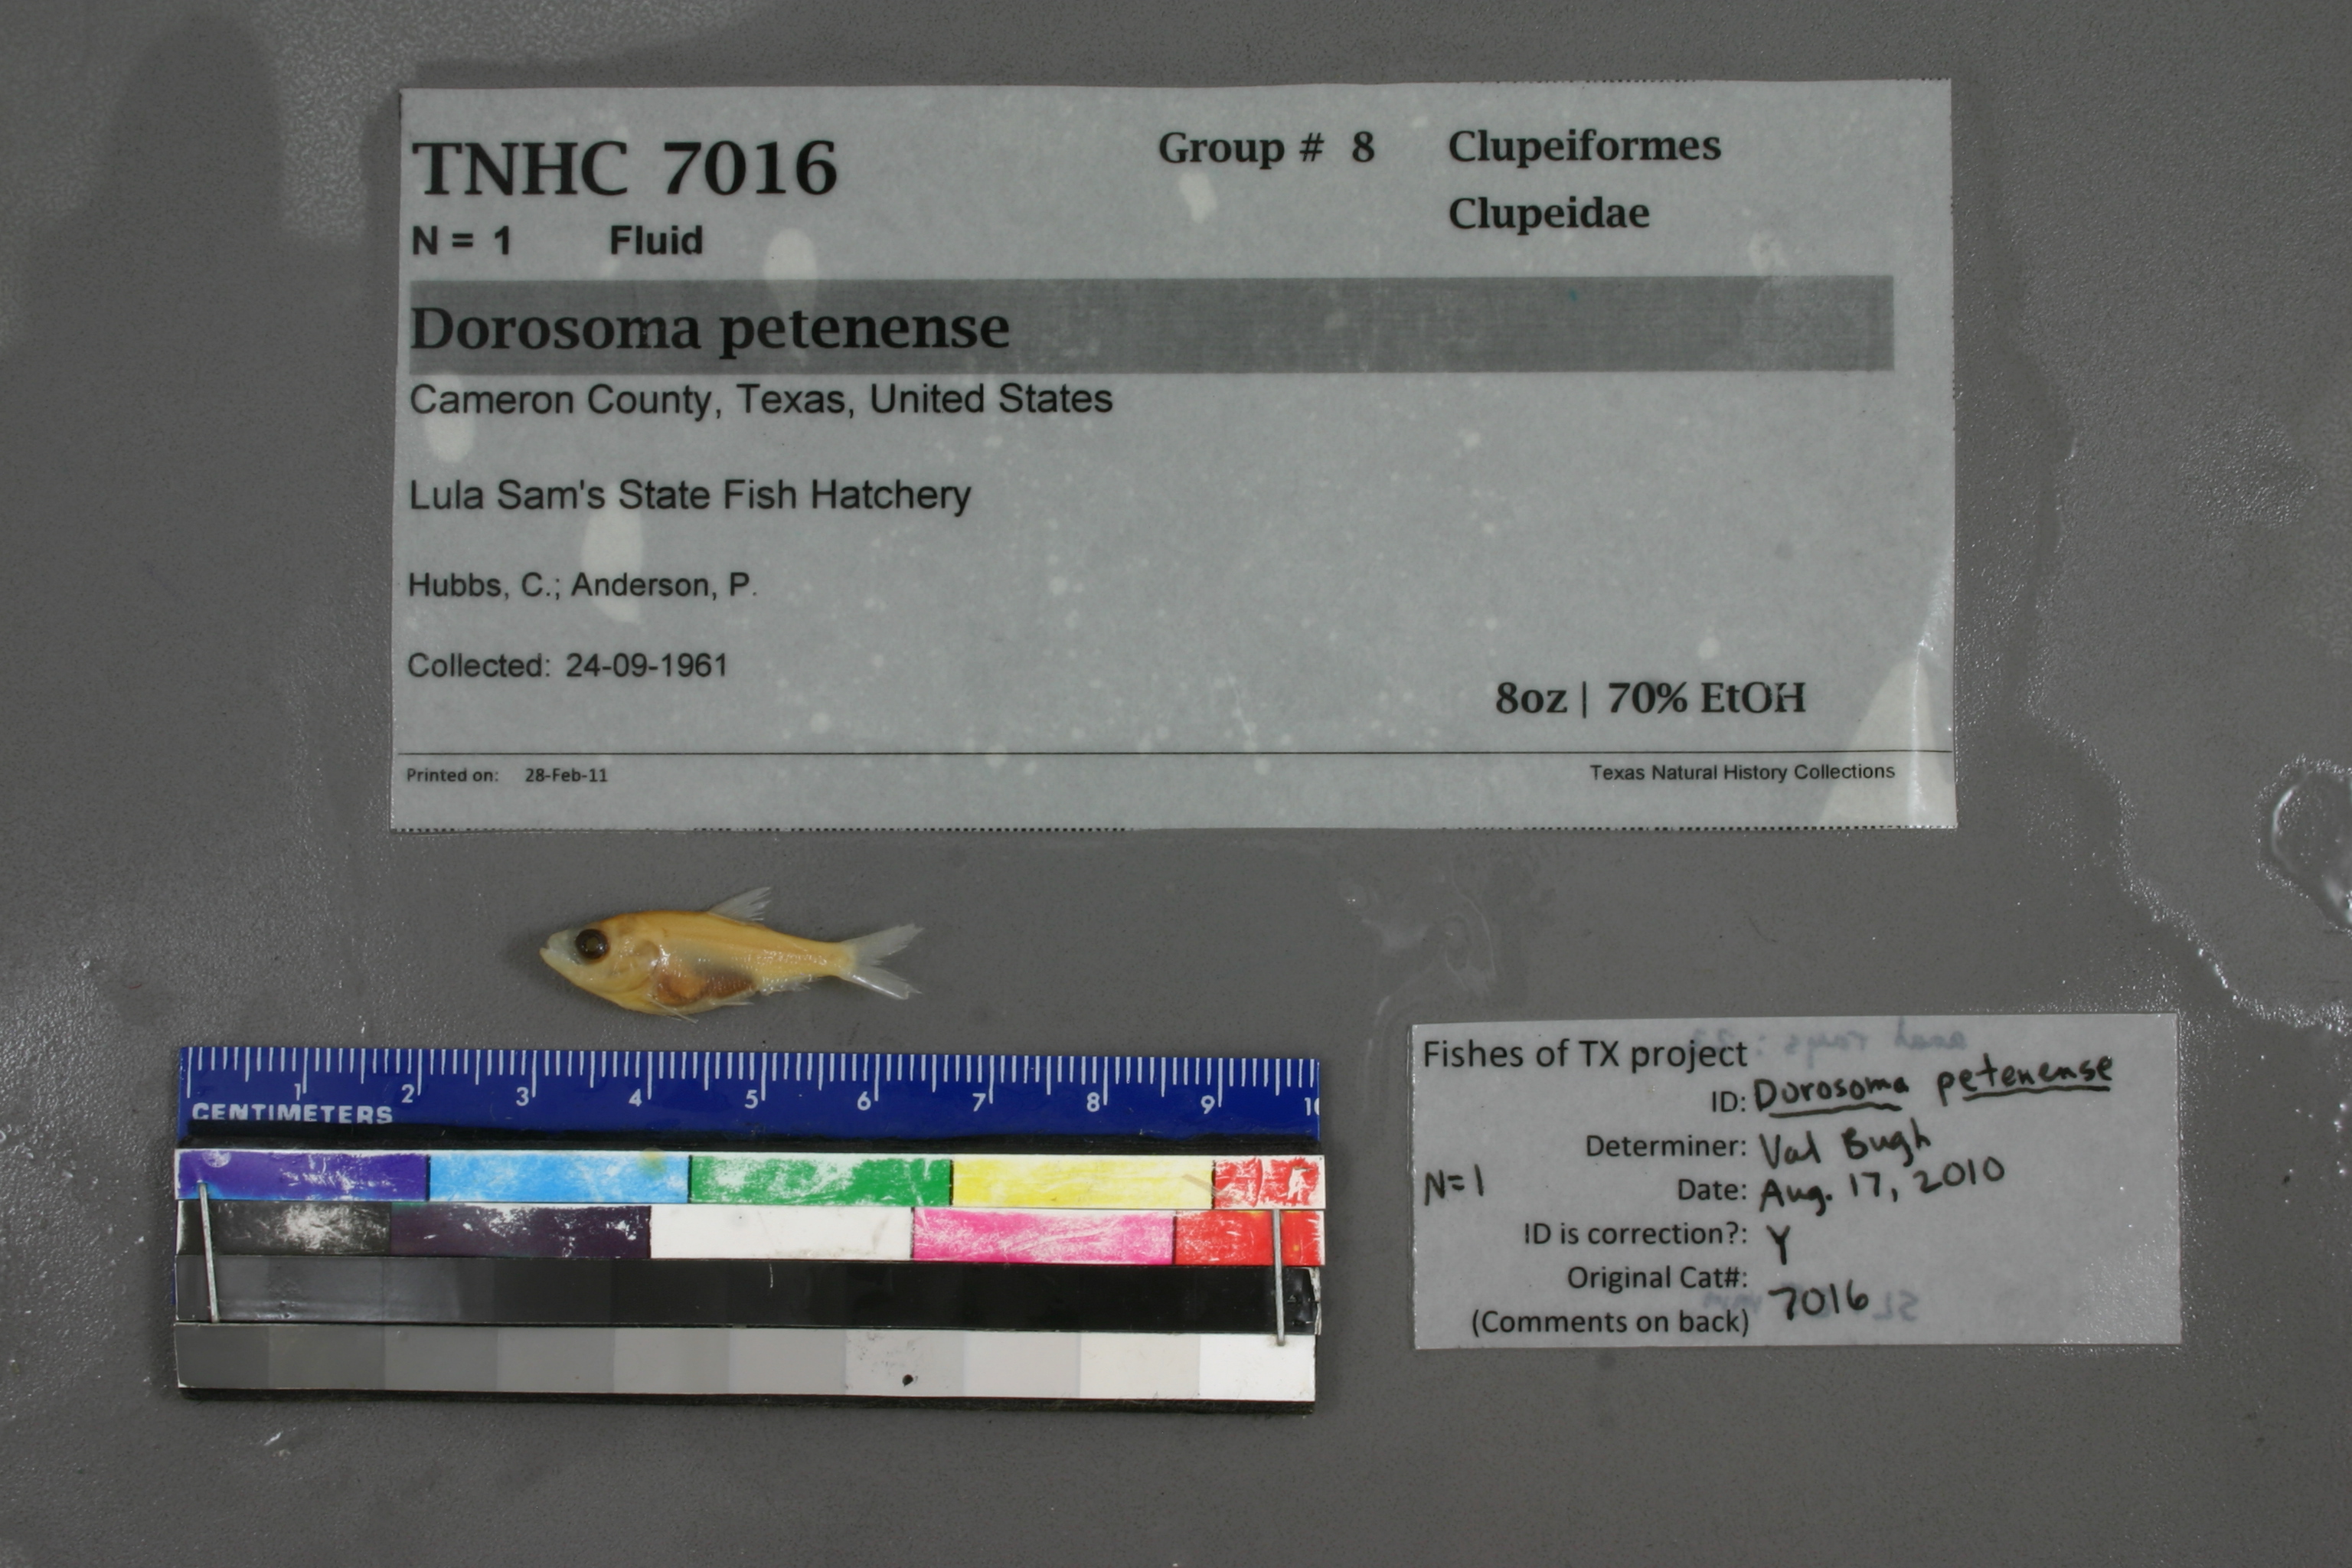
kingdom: Animalia
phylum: Chordata
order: Clupeiformes
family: Clupeidae
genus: Dorosoma
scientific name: Dorosoma petenense
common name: Threadfin shad
